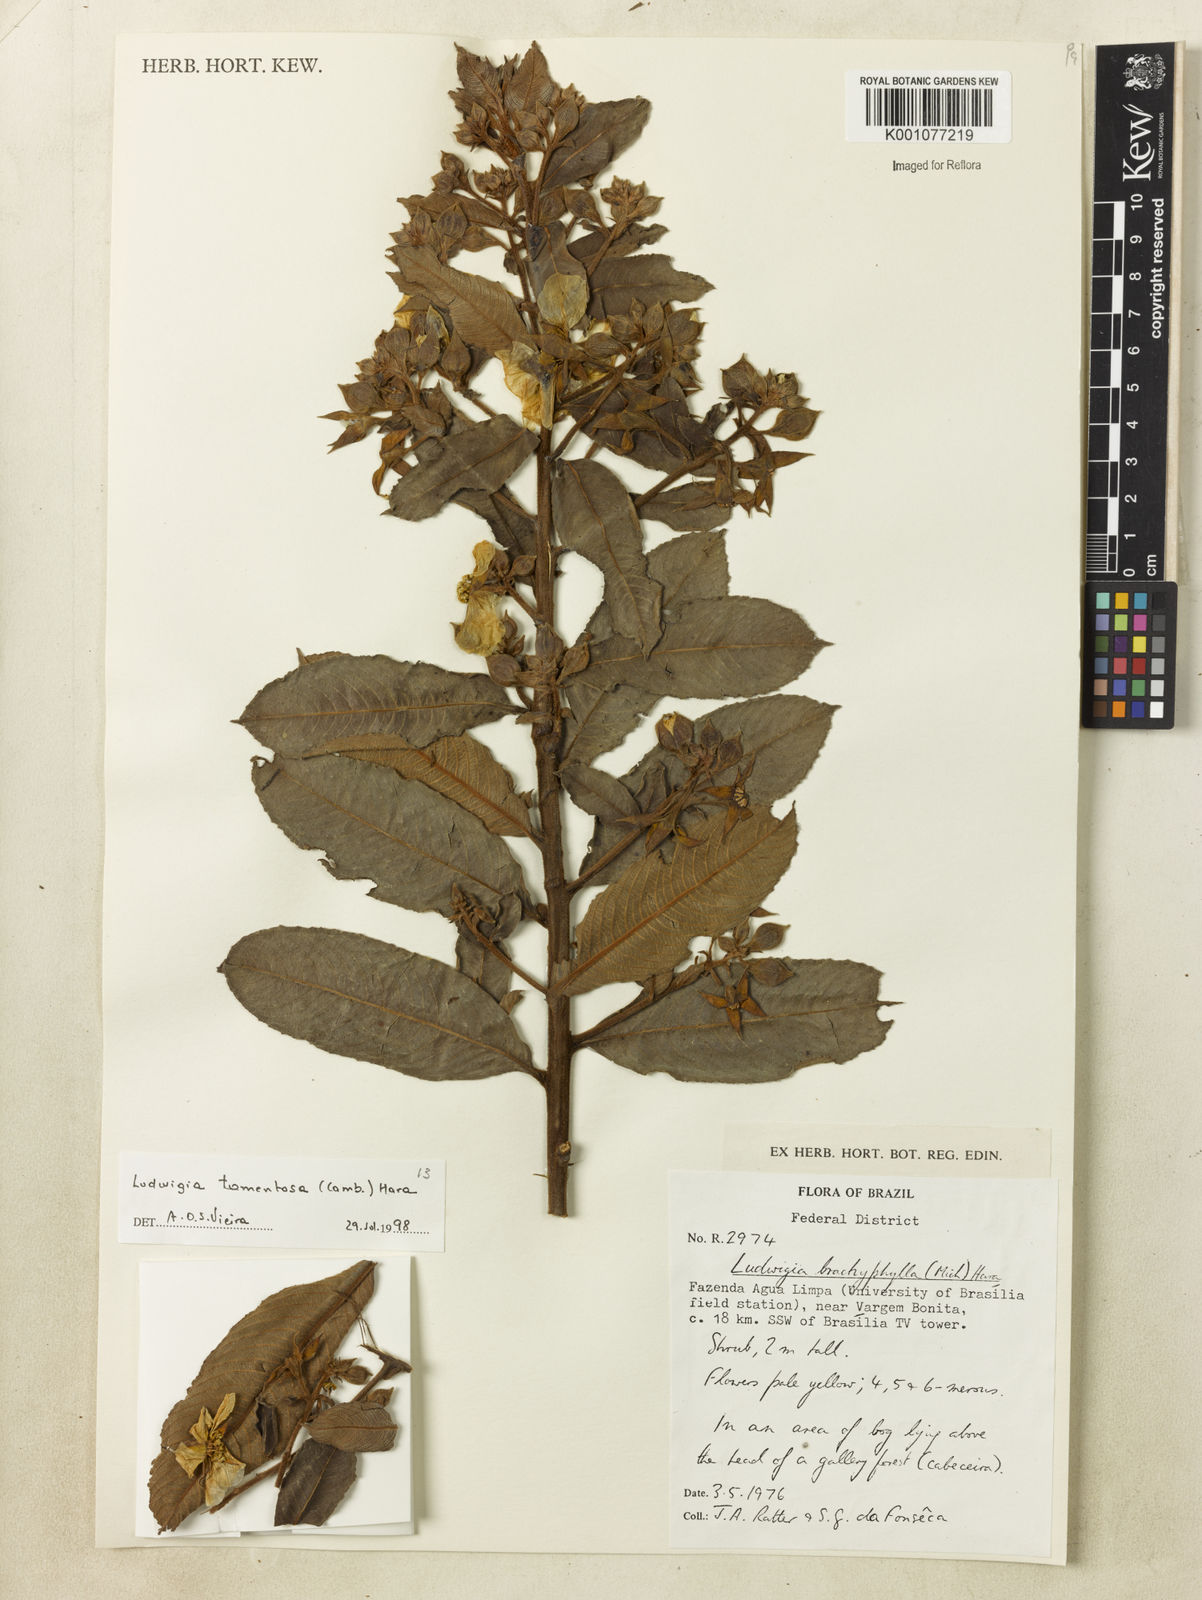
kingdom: Plantae
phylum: Tracheophyta
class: Magnoliopsida
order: Myrtales
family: Onagraceae
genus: Ludwigia
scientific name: Ludwigia tomentosa
